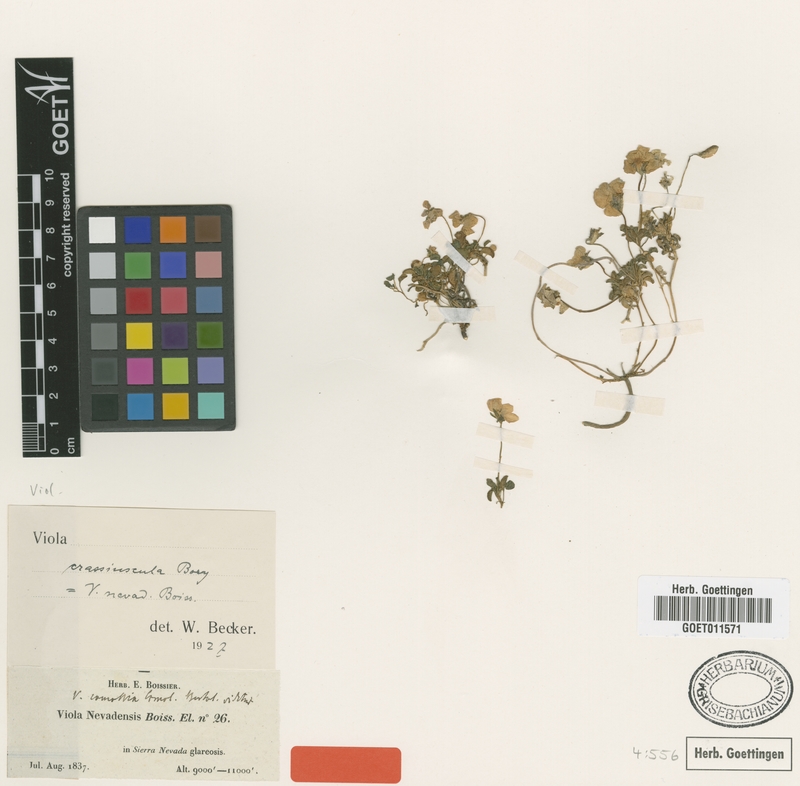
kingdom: Plantae
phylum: Tracheophyta
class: Magnoliopsida
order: Malpighiales
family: Violaceae
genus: Viola
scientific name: Viola crassiuscula
